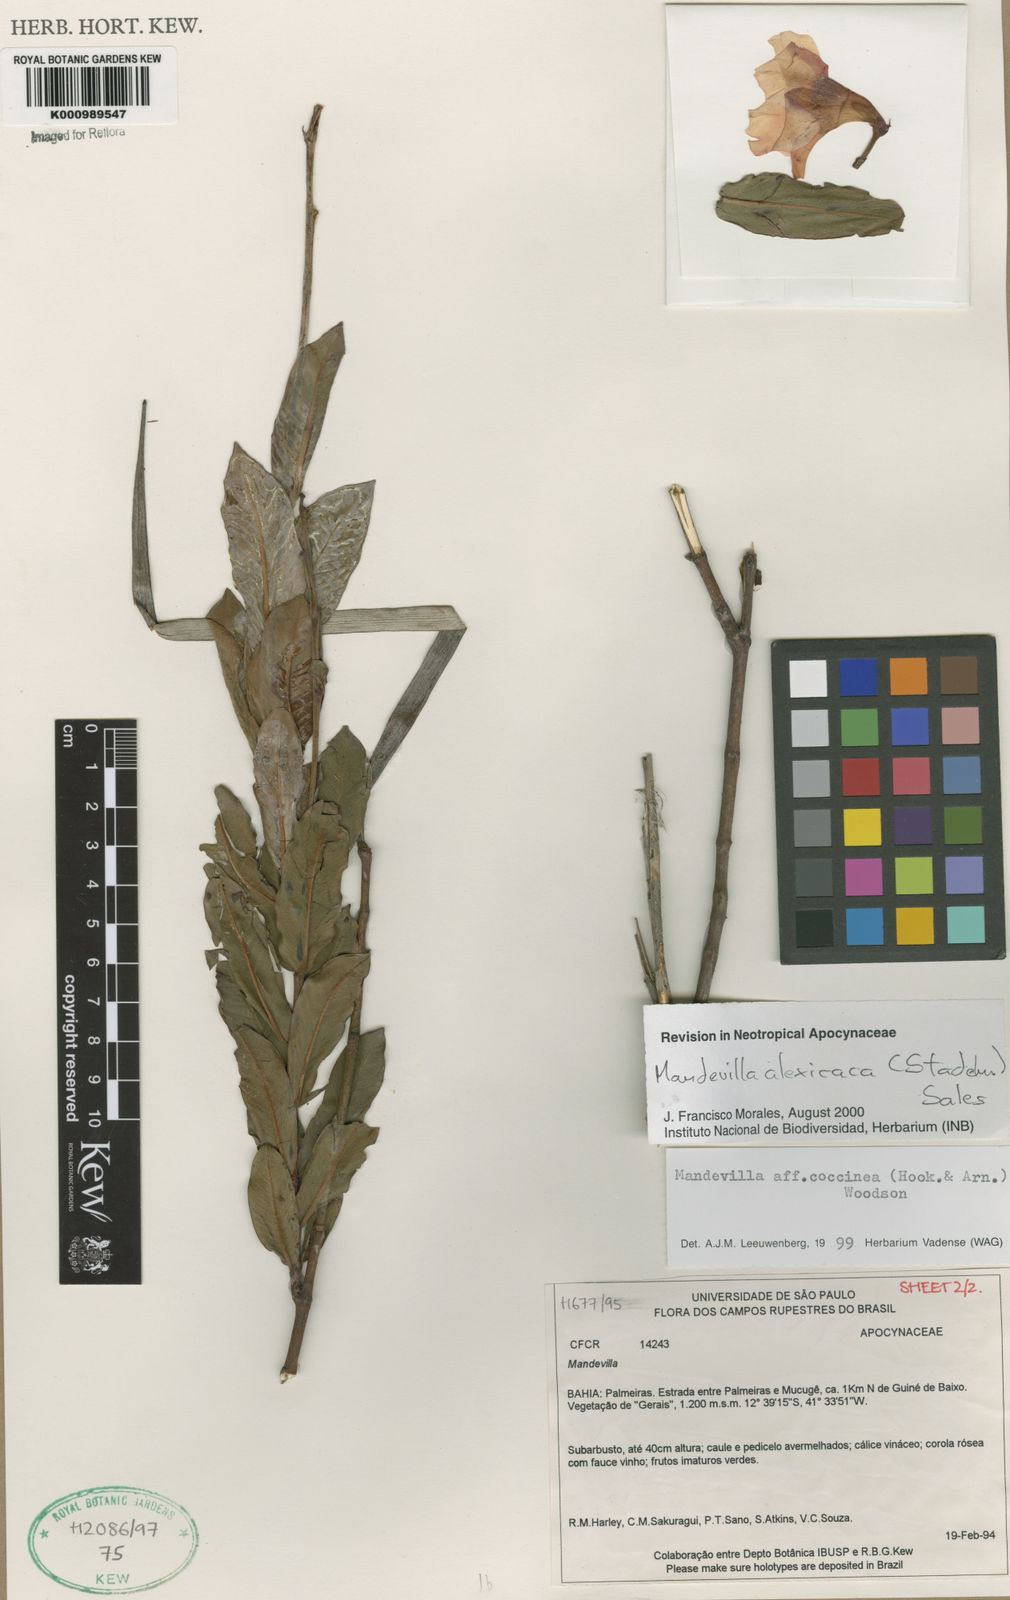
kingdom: Plantae
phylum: Tracheophyta
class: Magnoliopsida
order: Gentianales
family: Apocynaceae
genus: Mandevilla
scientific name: Mandevilla
